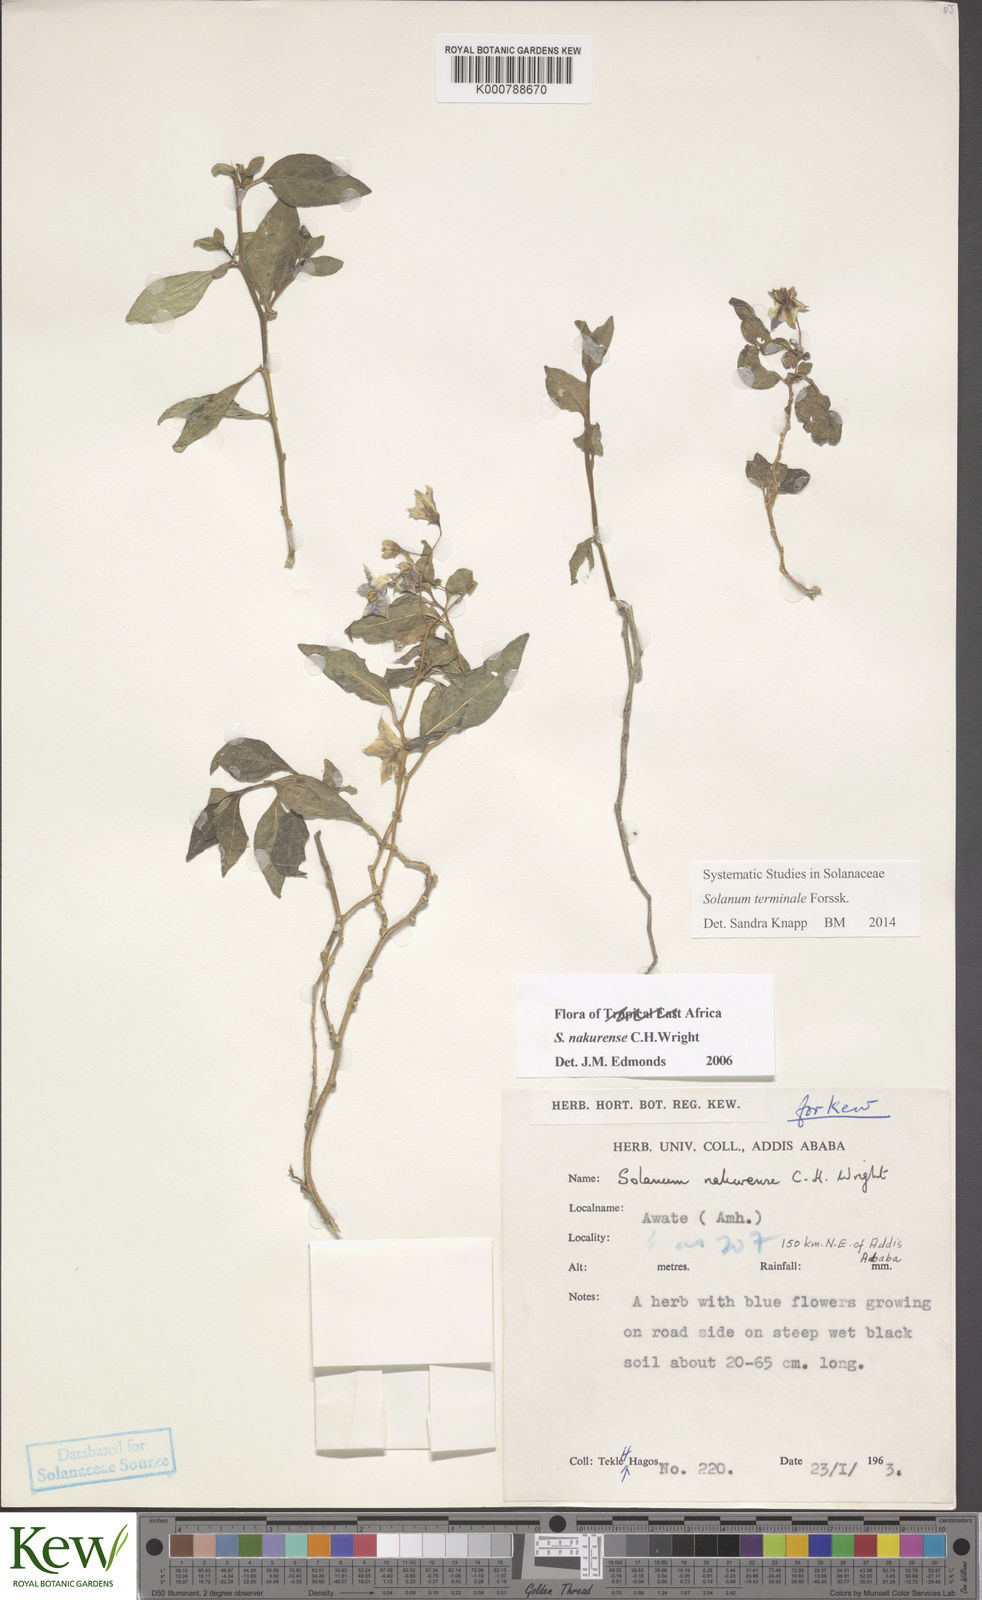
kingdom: Plantae
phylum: Tracheophyta
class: Magnoliopsida
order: Solanales
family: Solanaceae
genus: Solanum
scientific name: Solanum nakurense
